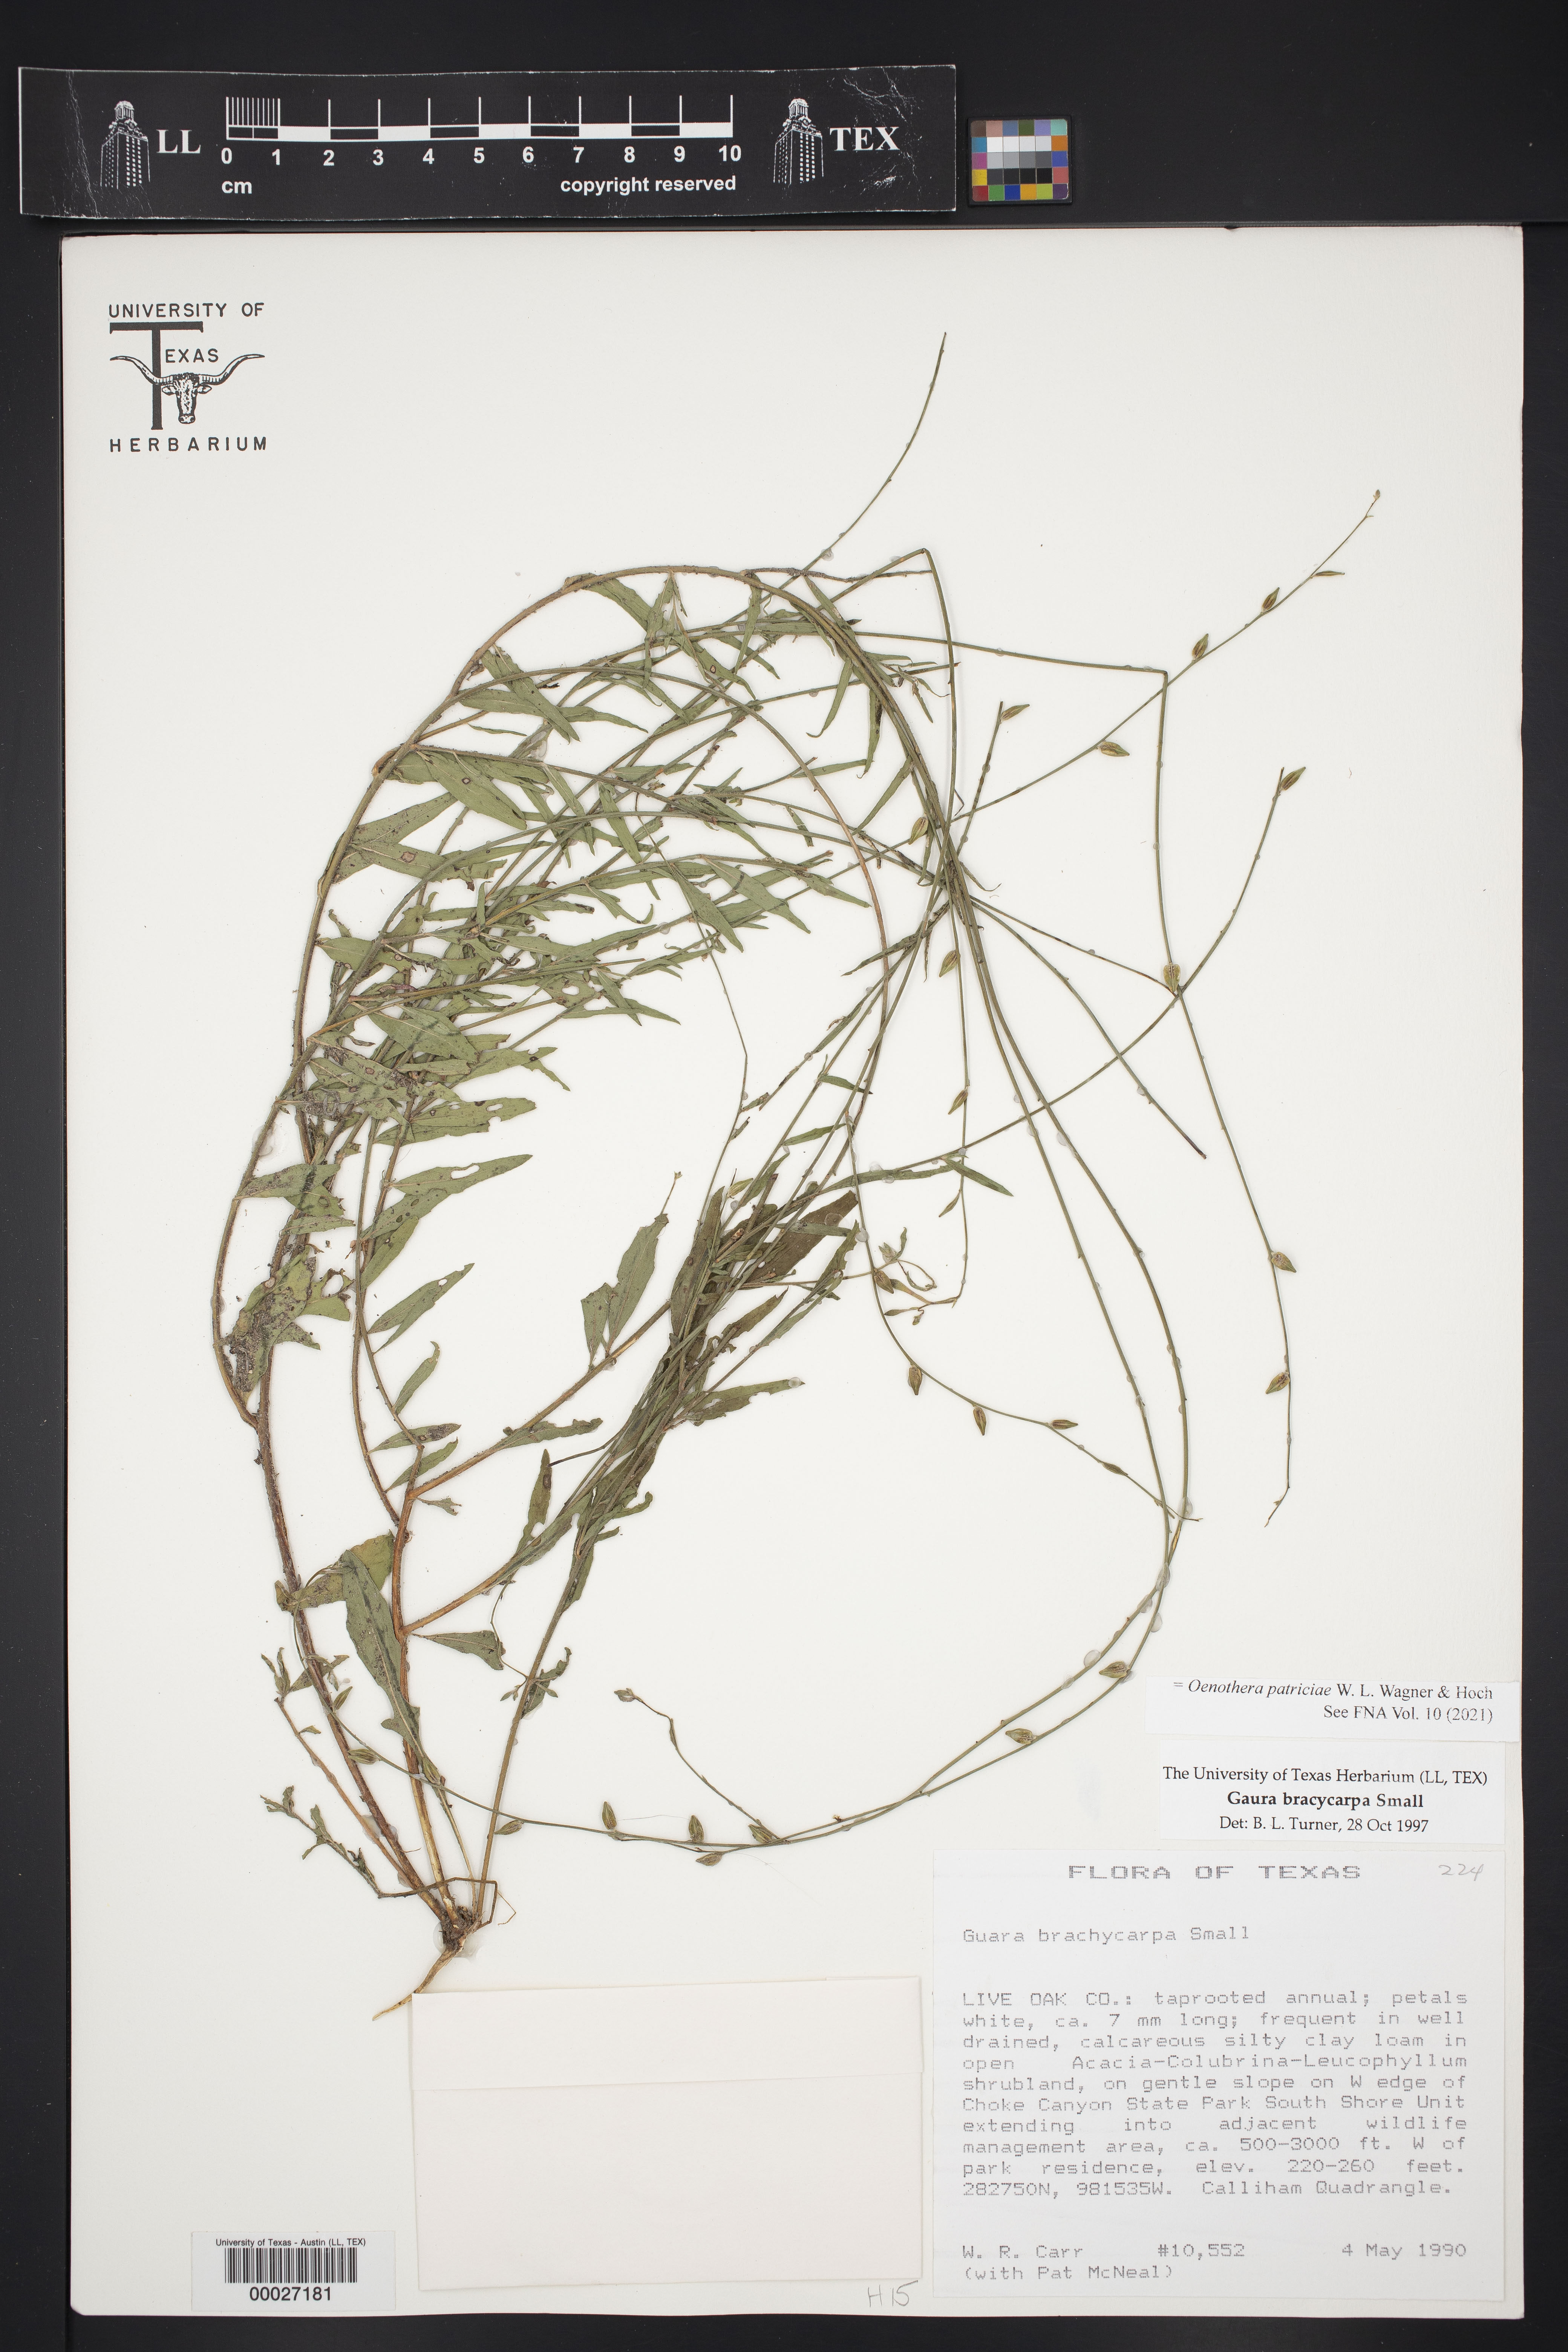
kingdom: Plantae
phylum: Tracheophyta
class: Magnoliopsida
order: Myrtales
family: Onagraceae
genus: Oenothera
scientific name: Oenothera patriciae
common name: Plains beeblossom
